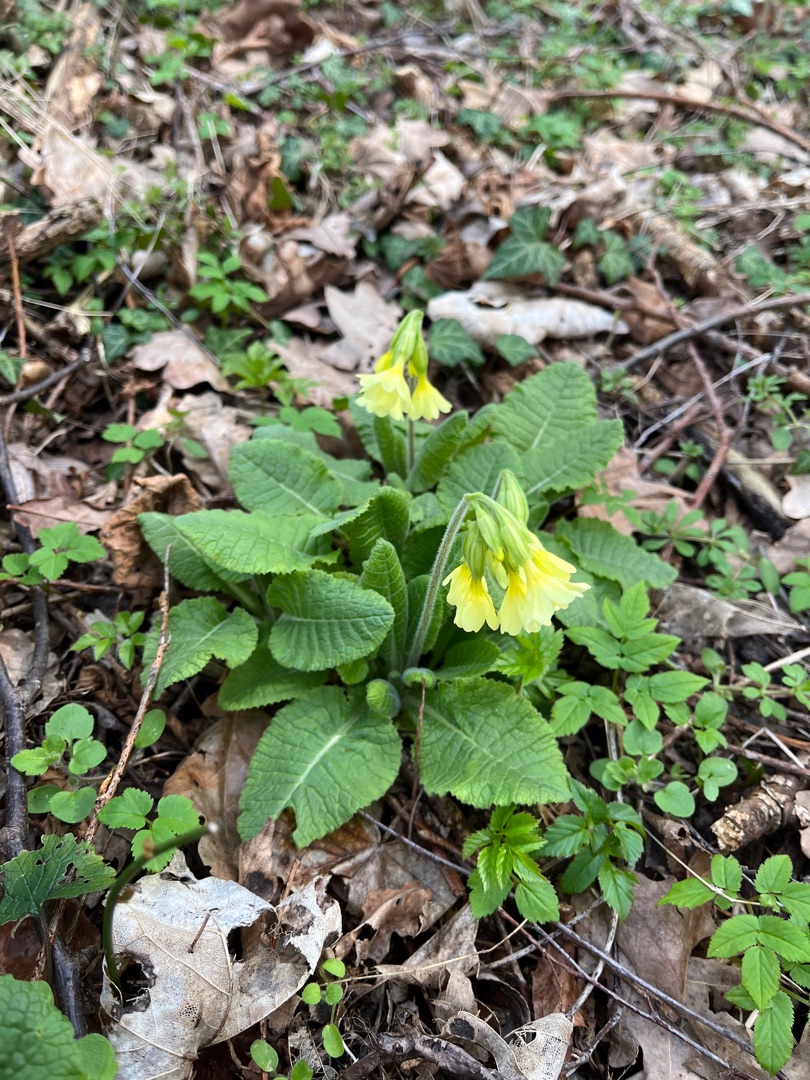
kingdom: Plantae
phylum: Tracheophyta
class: Magnoliopsida
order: Ericales
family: Primulaceae
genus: Primula
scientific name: Primula elatior
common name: Fladkravet kodriver
